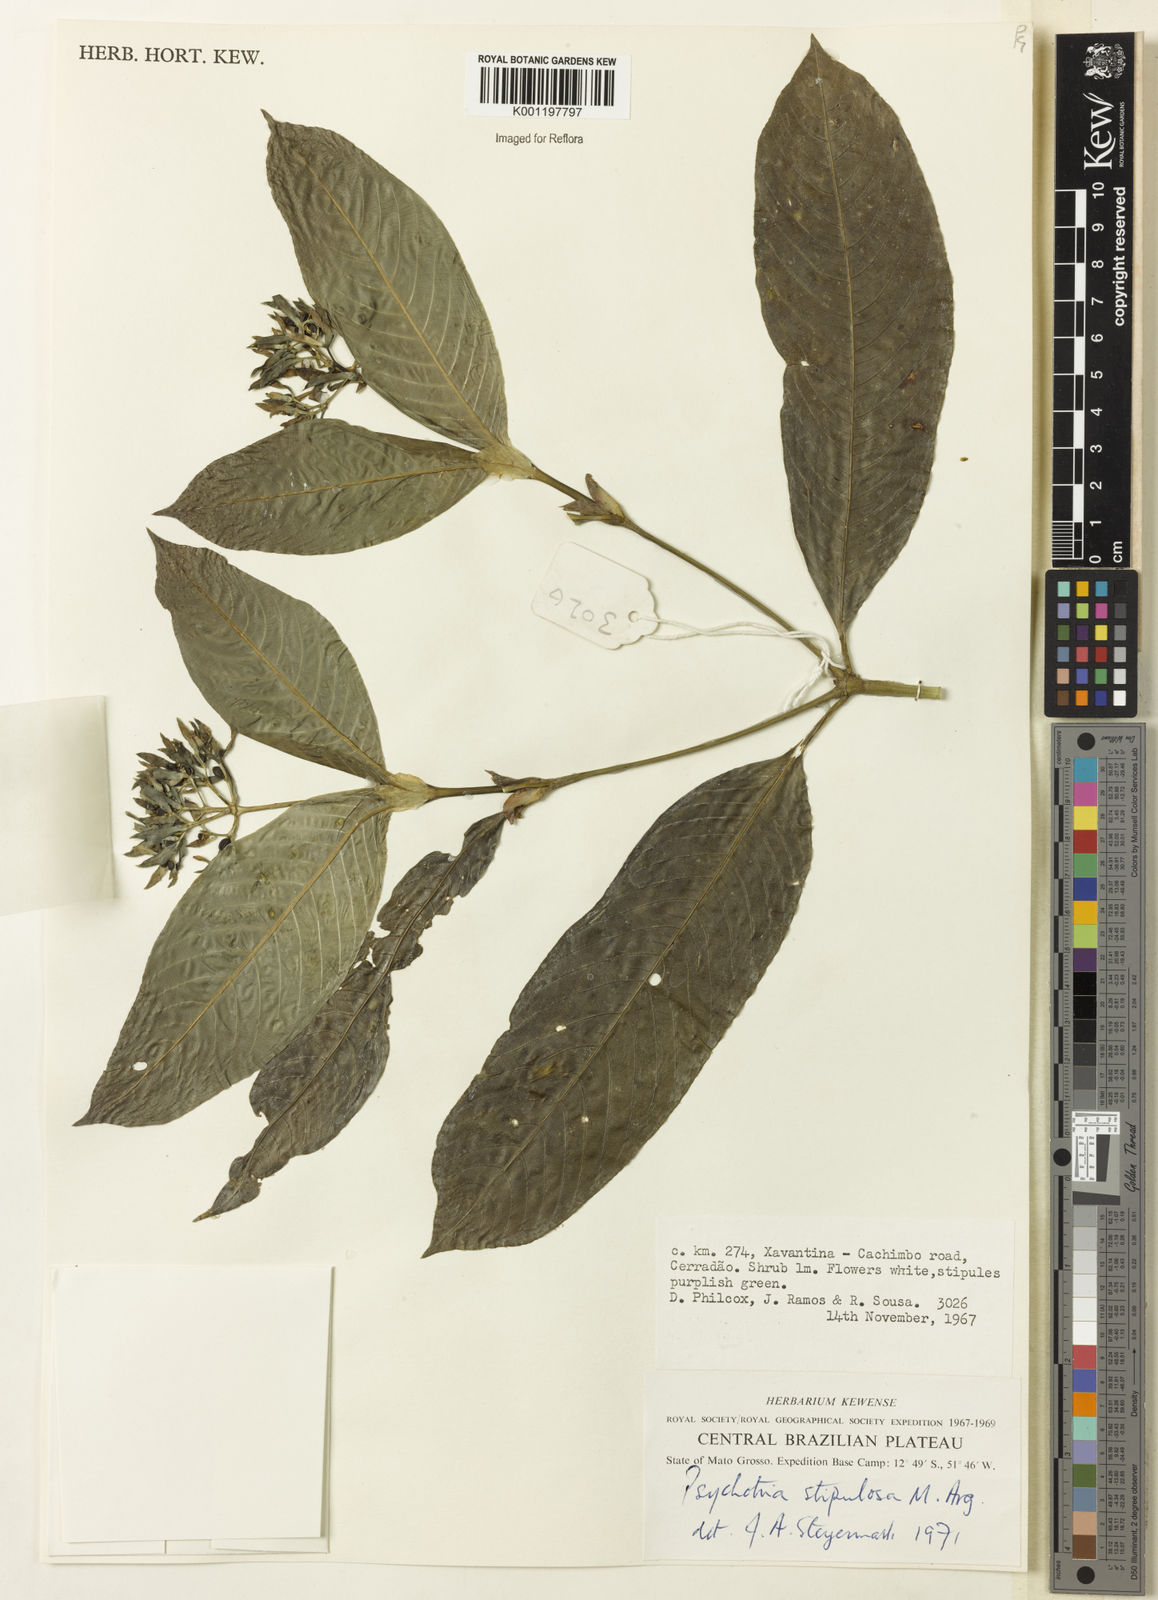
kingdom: Plantae
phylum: Tracheophyta
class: Magnoliopsida
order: Gentianales
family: Rubiaceae
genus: Psychotria
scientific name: Psychotria
